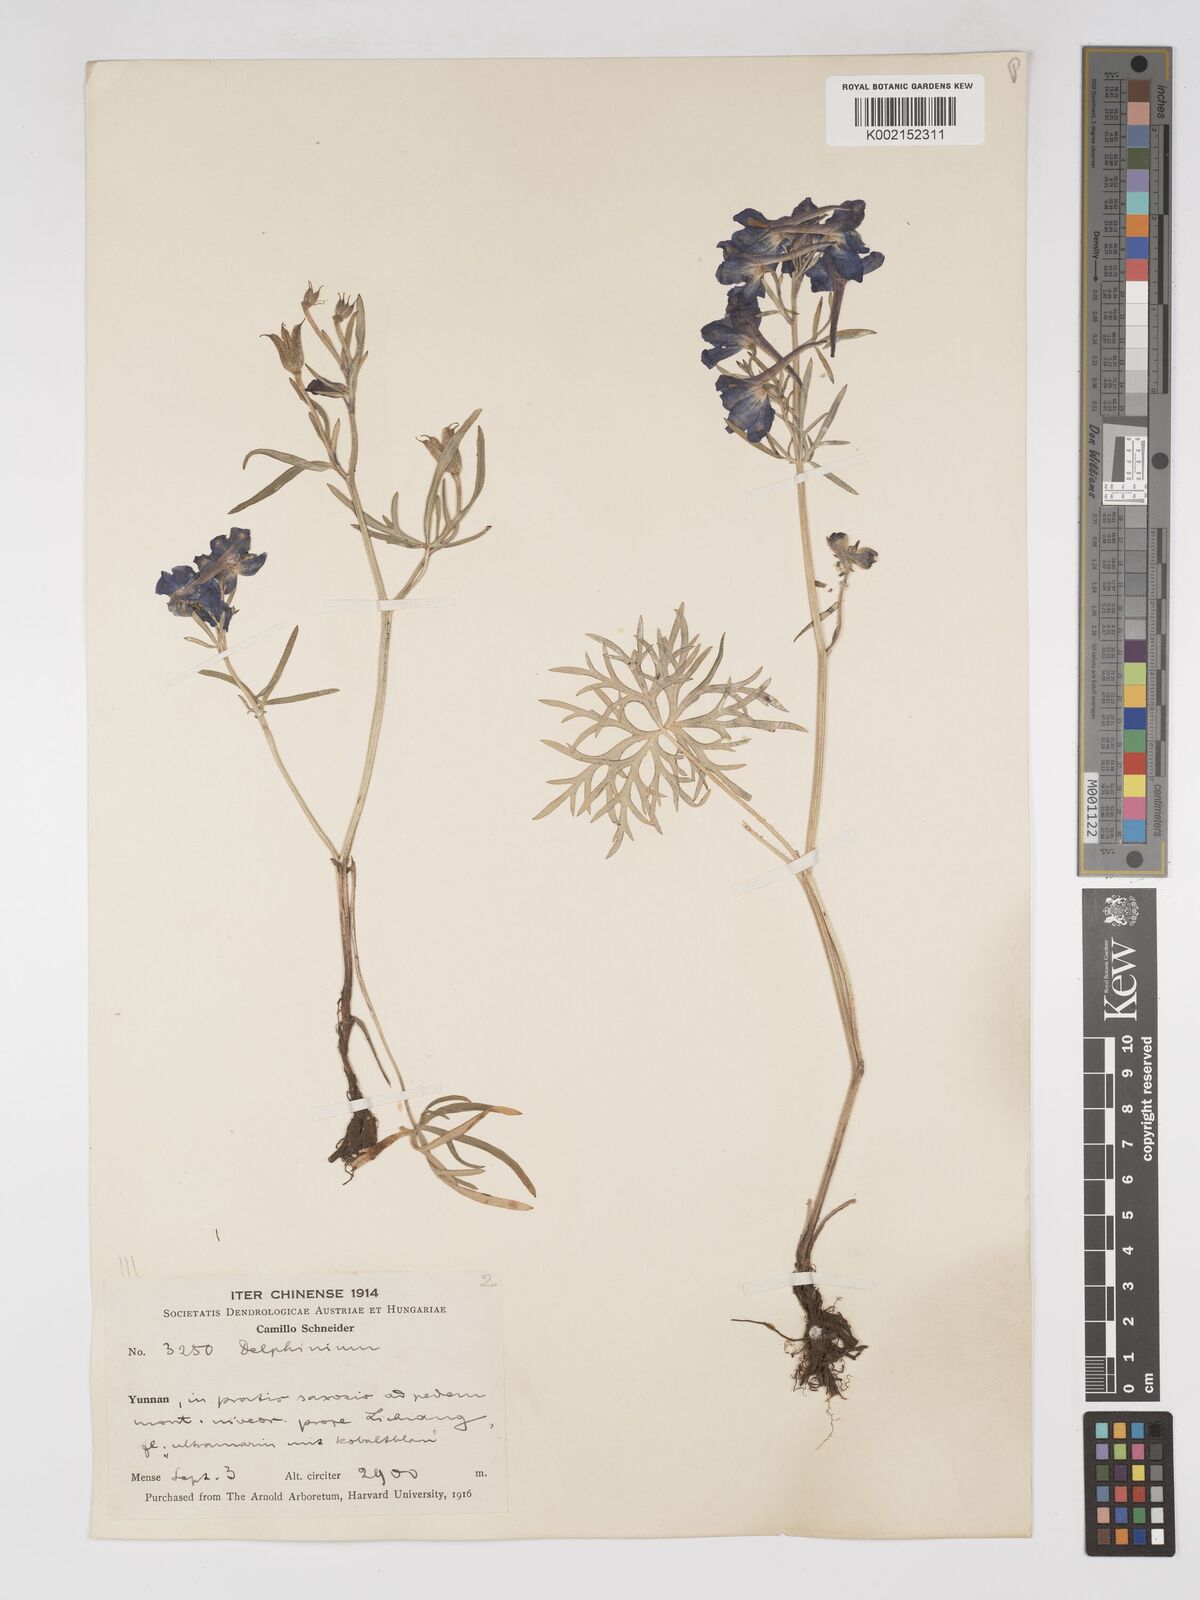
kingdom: Plantae
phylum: Tracheophyta
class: Magnoliopsida
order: Ranunculales
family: Ranunculaceae
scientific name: Ranunculaceae
